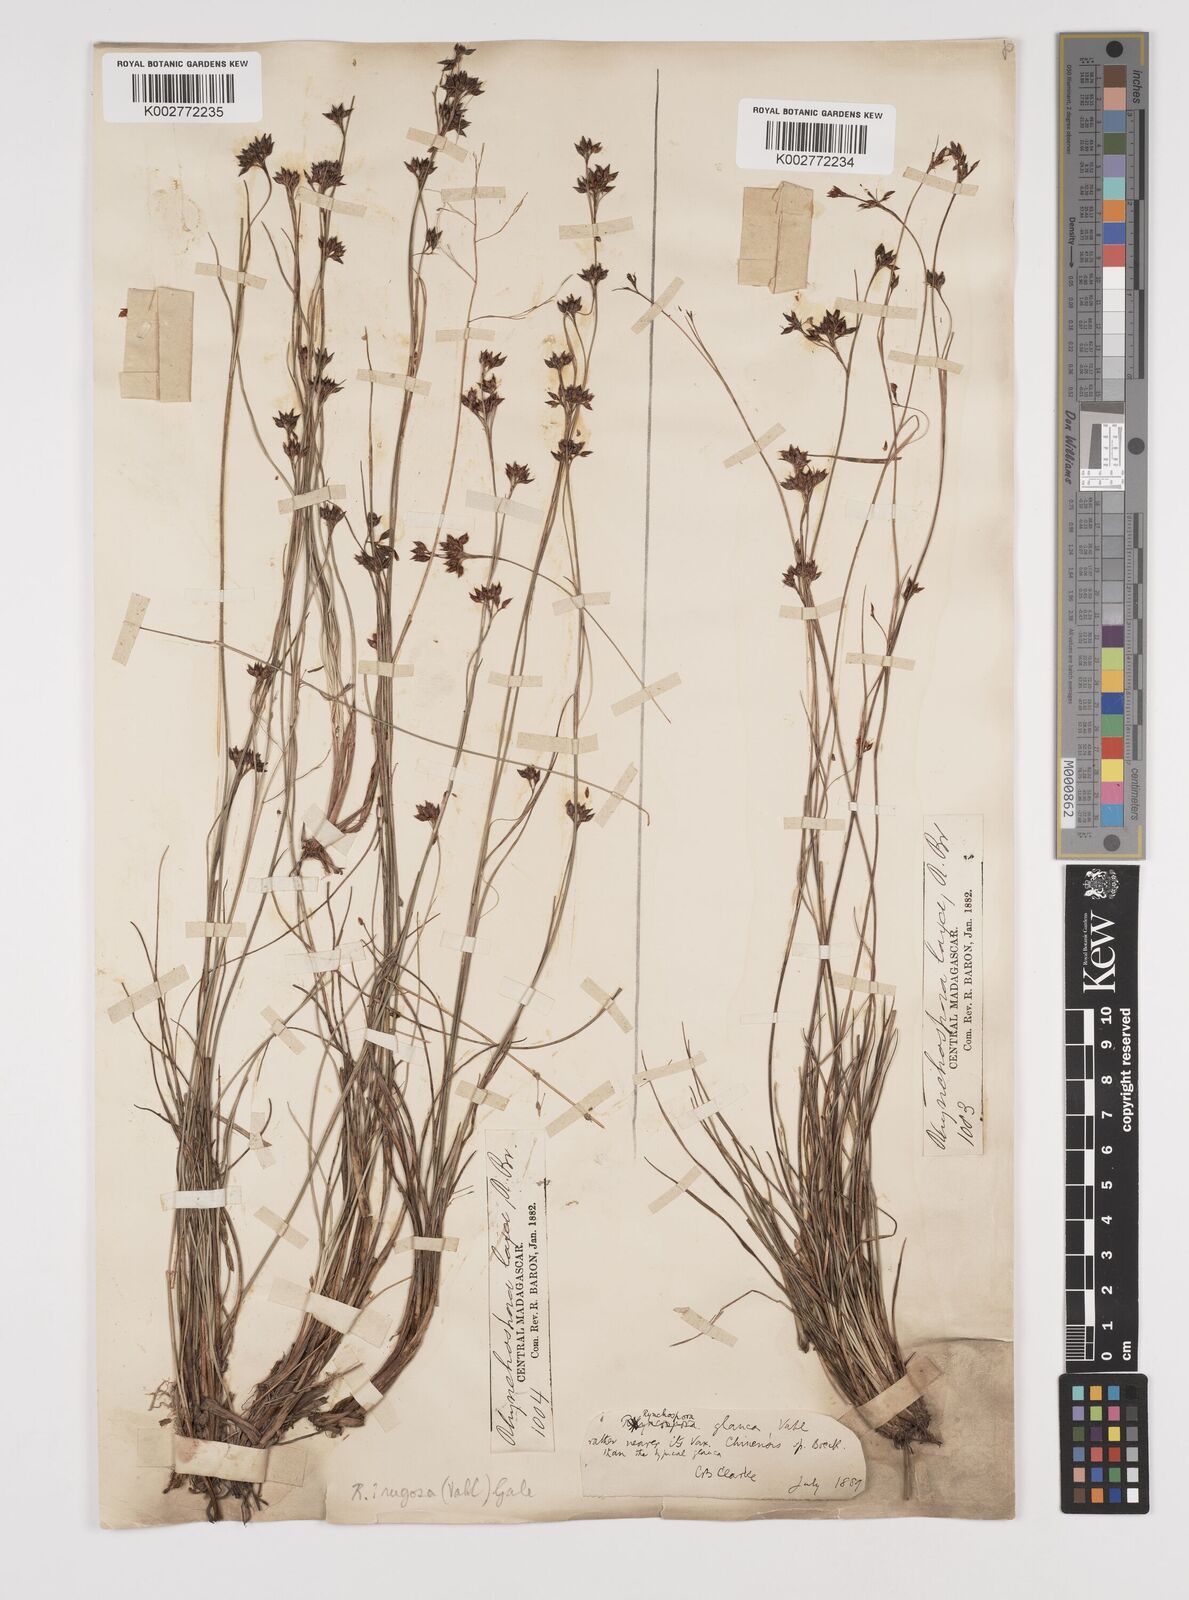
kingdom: Plantae
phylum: Tracheophyta
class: Liliopsida
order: Poales
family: Cyperaceae
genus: Rhynchospora
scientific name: Rhynchospora rugosa
